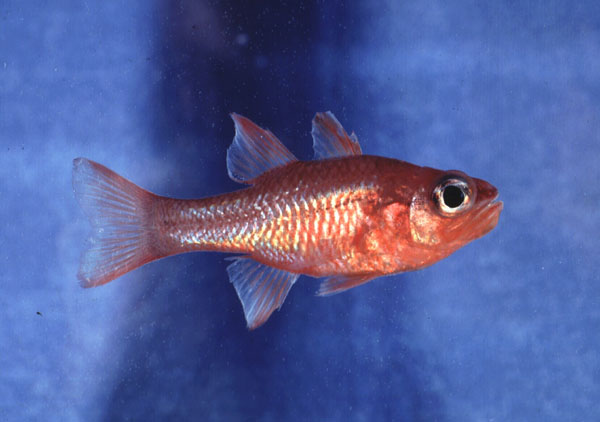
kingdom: Animalia
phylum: Chordata
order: Perciformes
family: Apogonidae
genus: Apogon
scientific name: Apogon imberbis
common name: Cardinal fish
